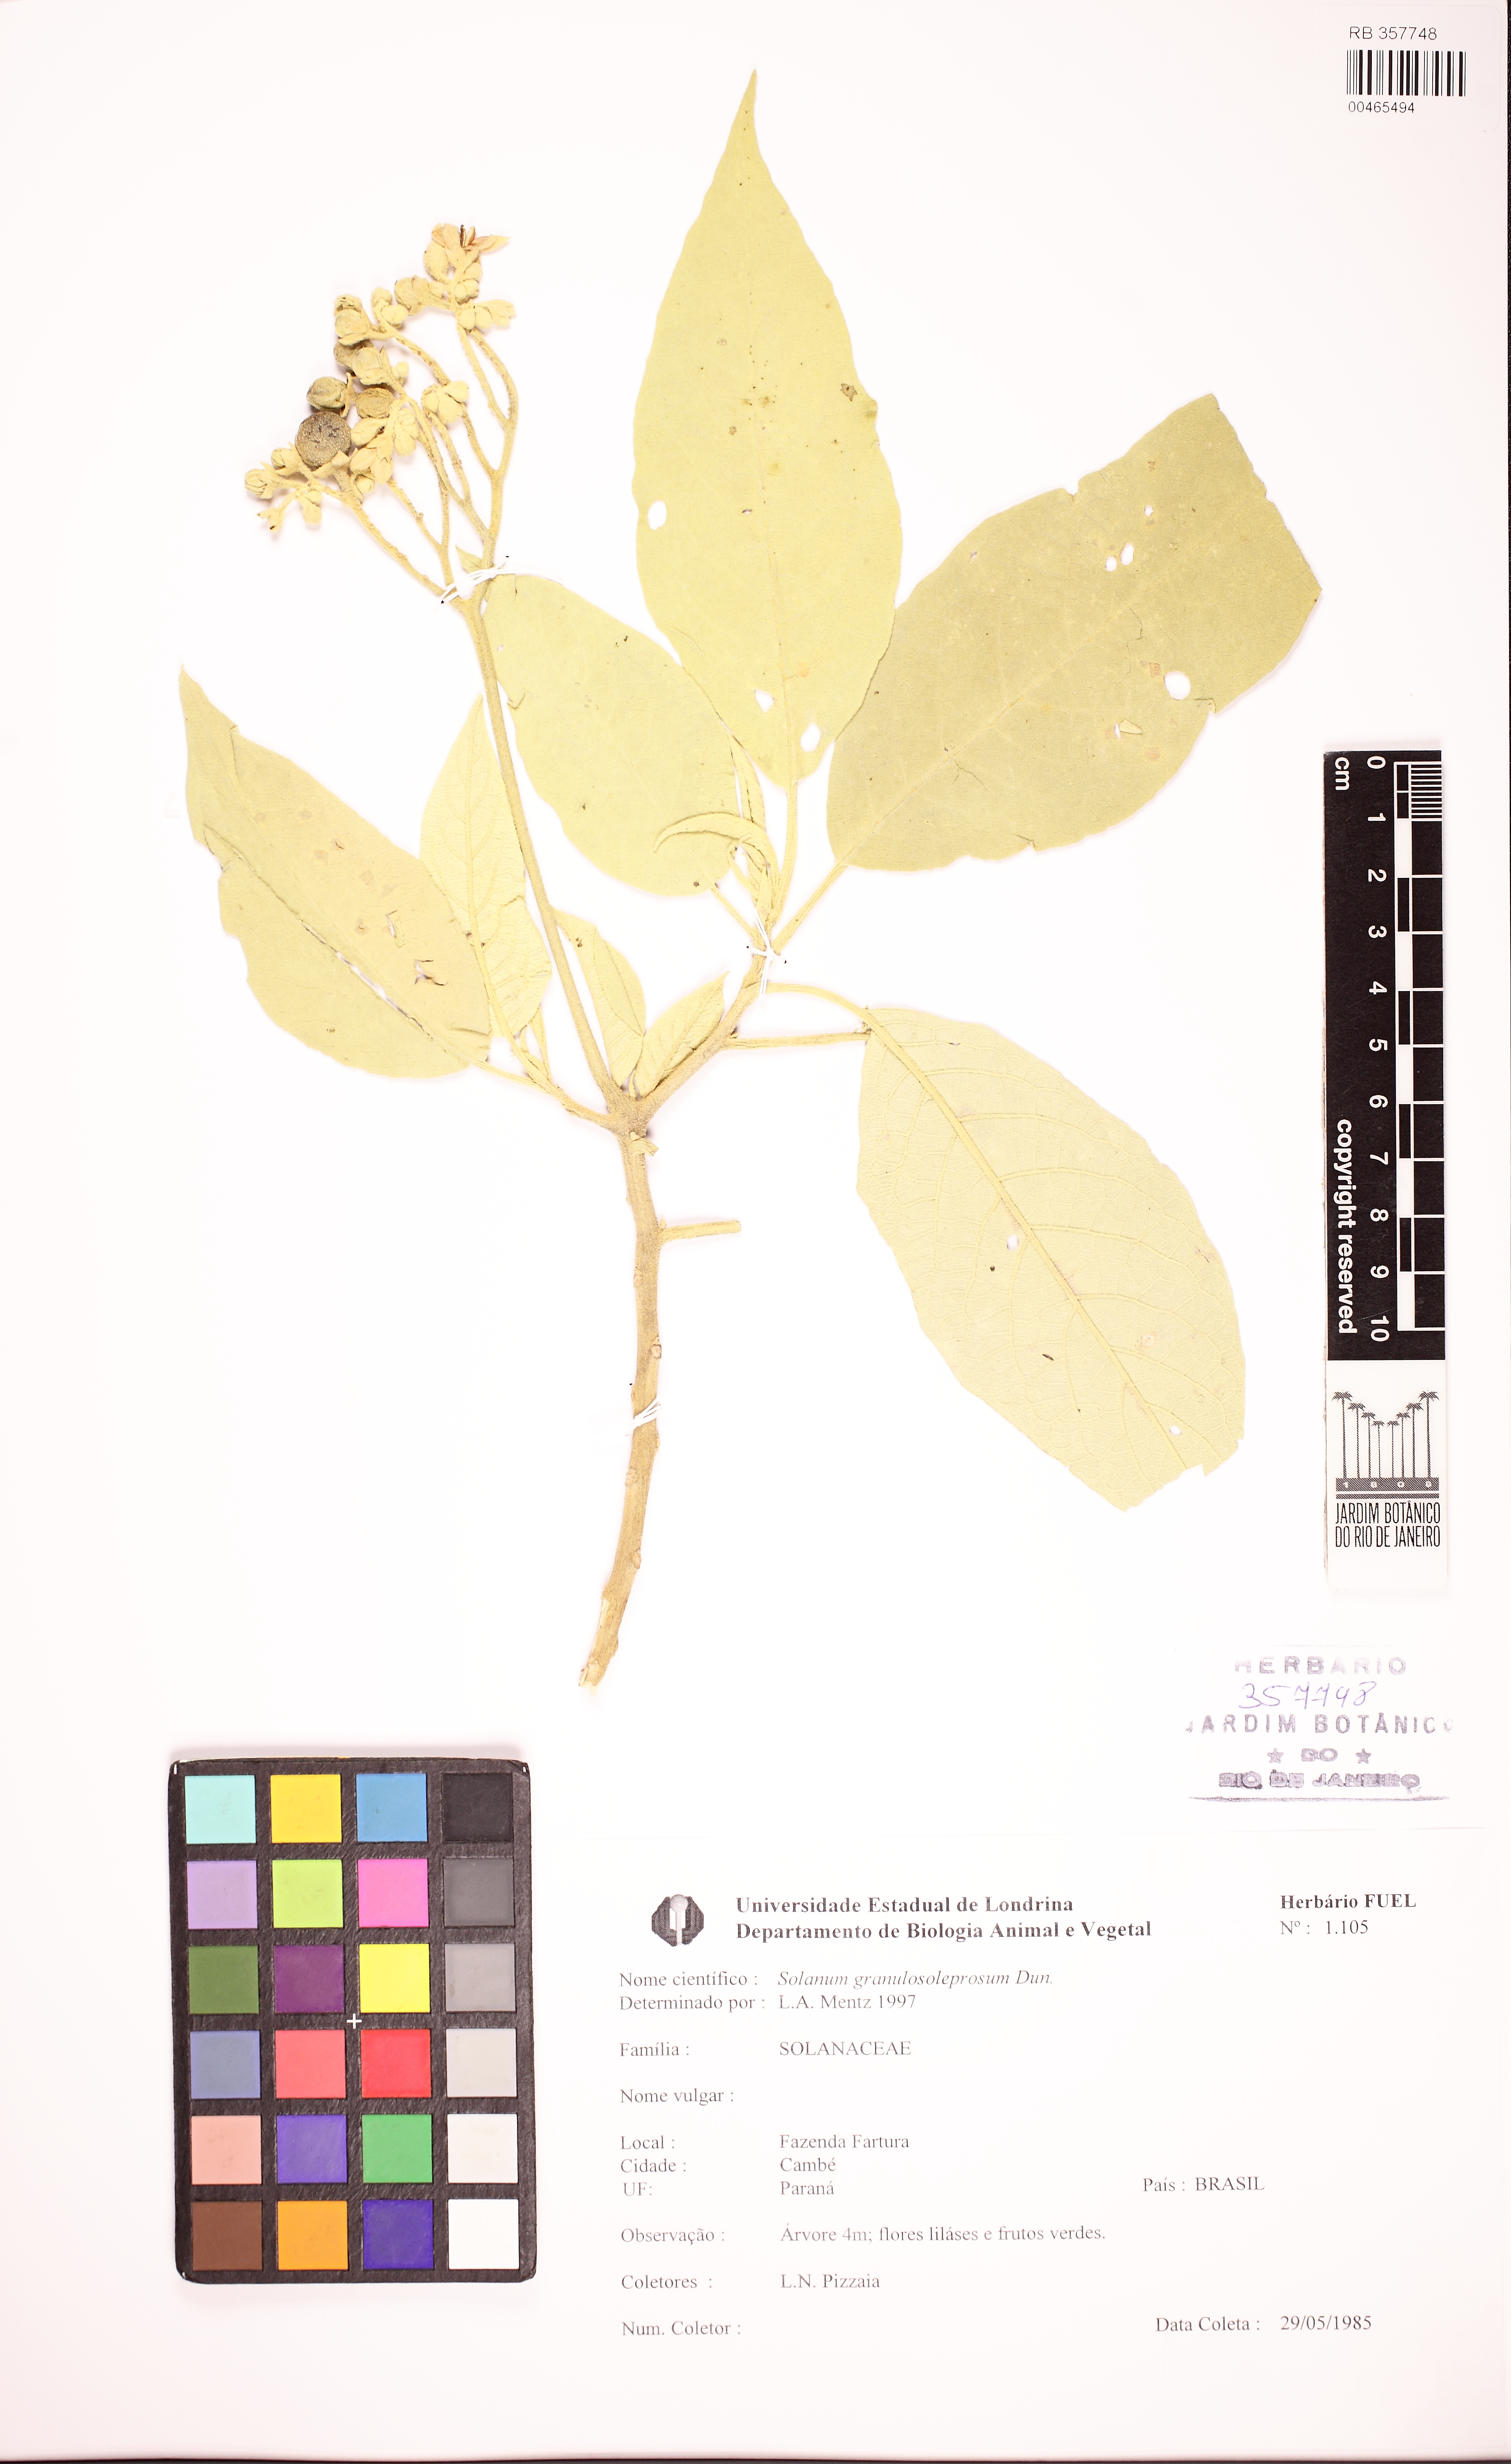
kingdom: Plantae
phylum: Tracheophyta
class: Magnoliopsida
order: Solanales
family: Solanaceae
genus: Solanum
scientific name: Solanum granulosoleprosum
